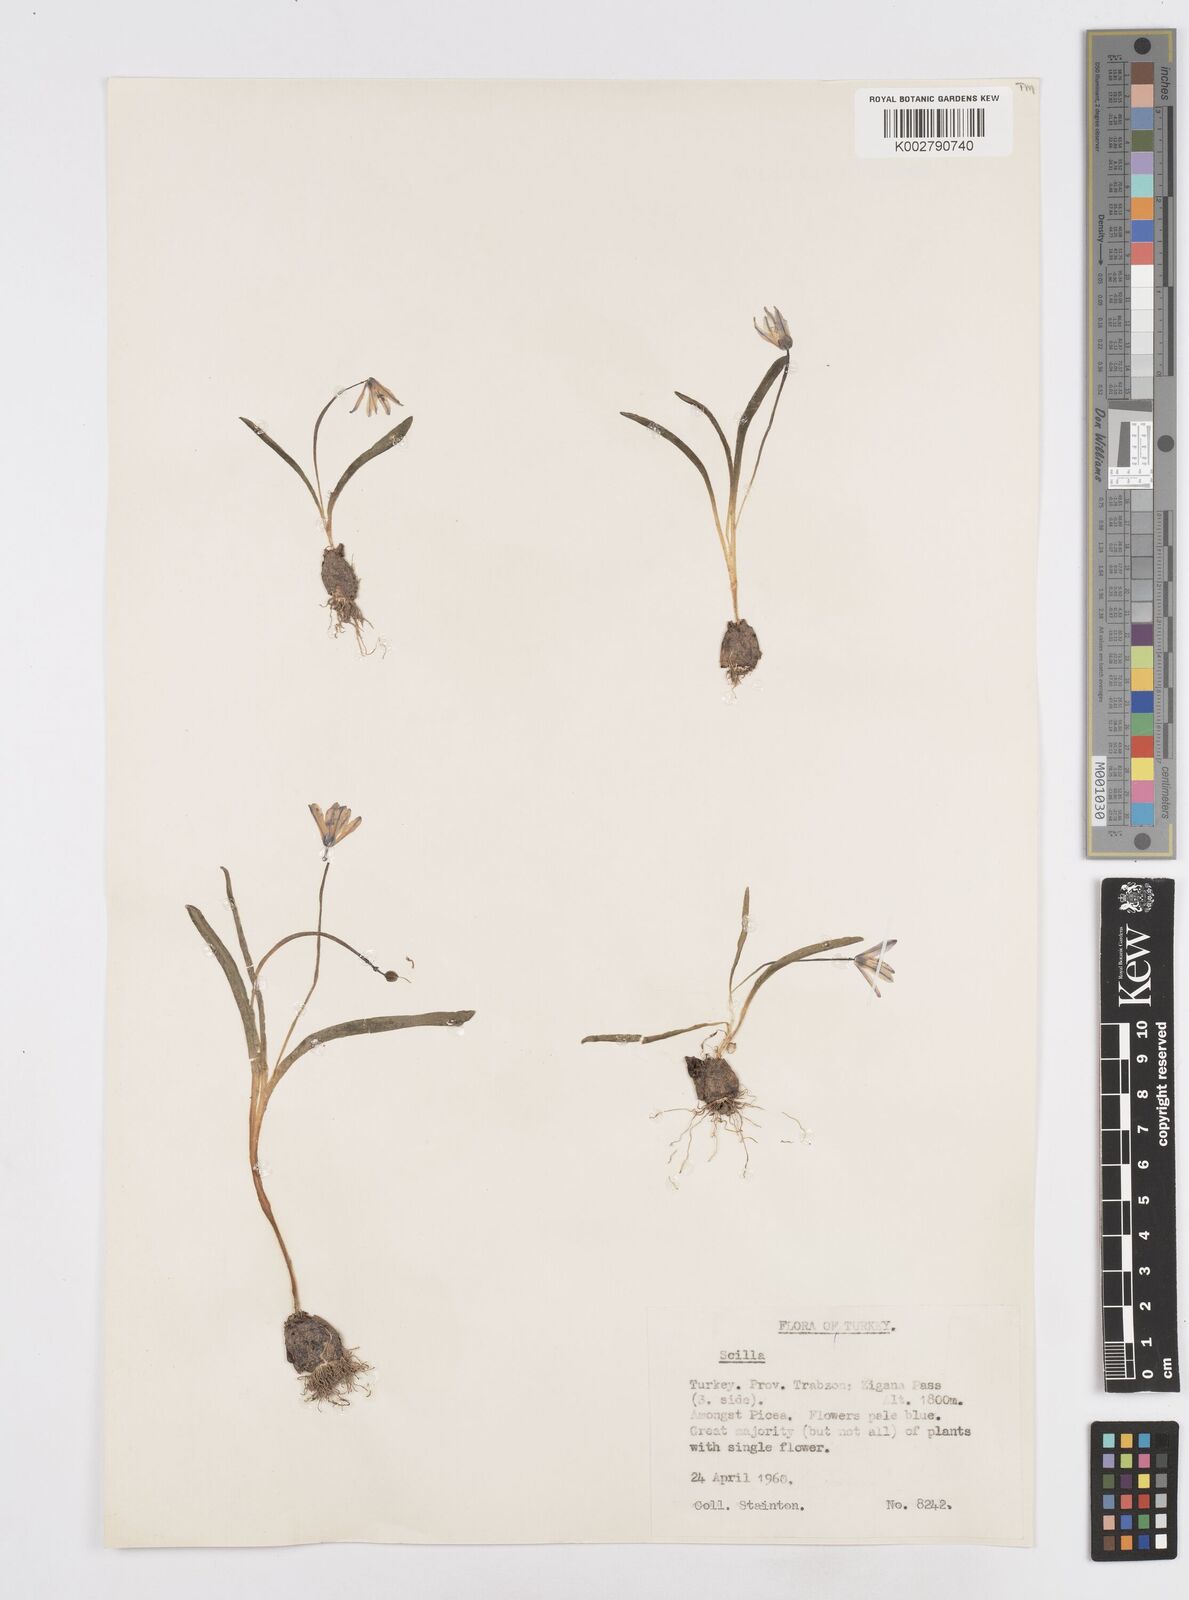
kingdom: Plantae
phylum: Tracheophyta
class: Liliopsida
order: Asparagales
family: Asparagaceae
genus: Scilla
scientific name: Scilla monanthos
